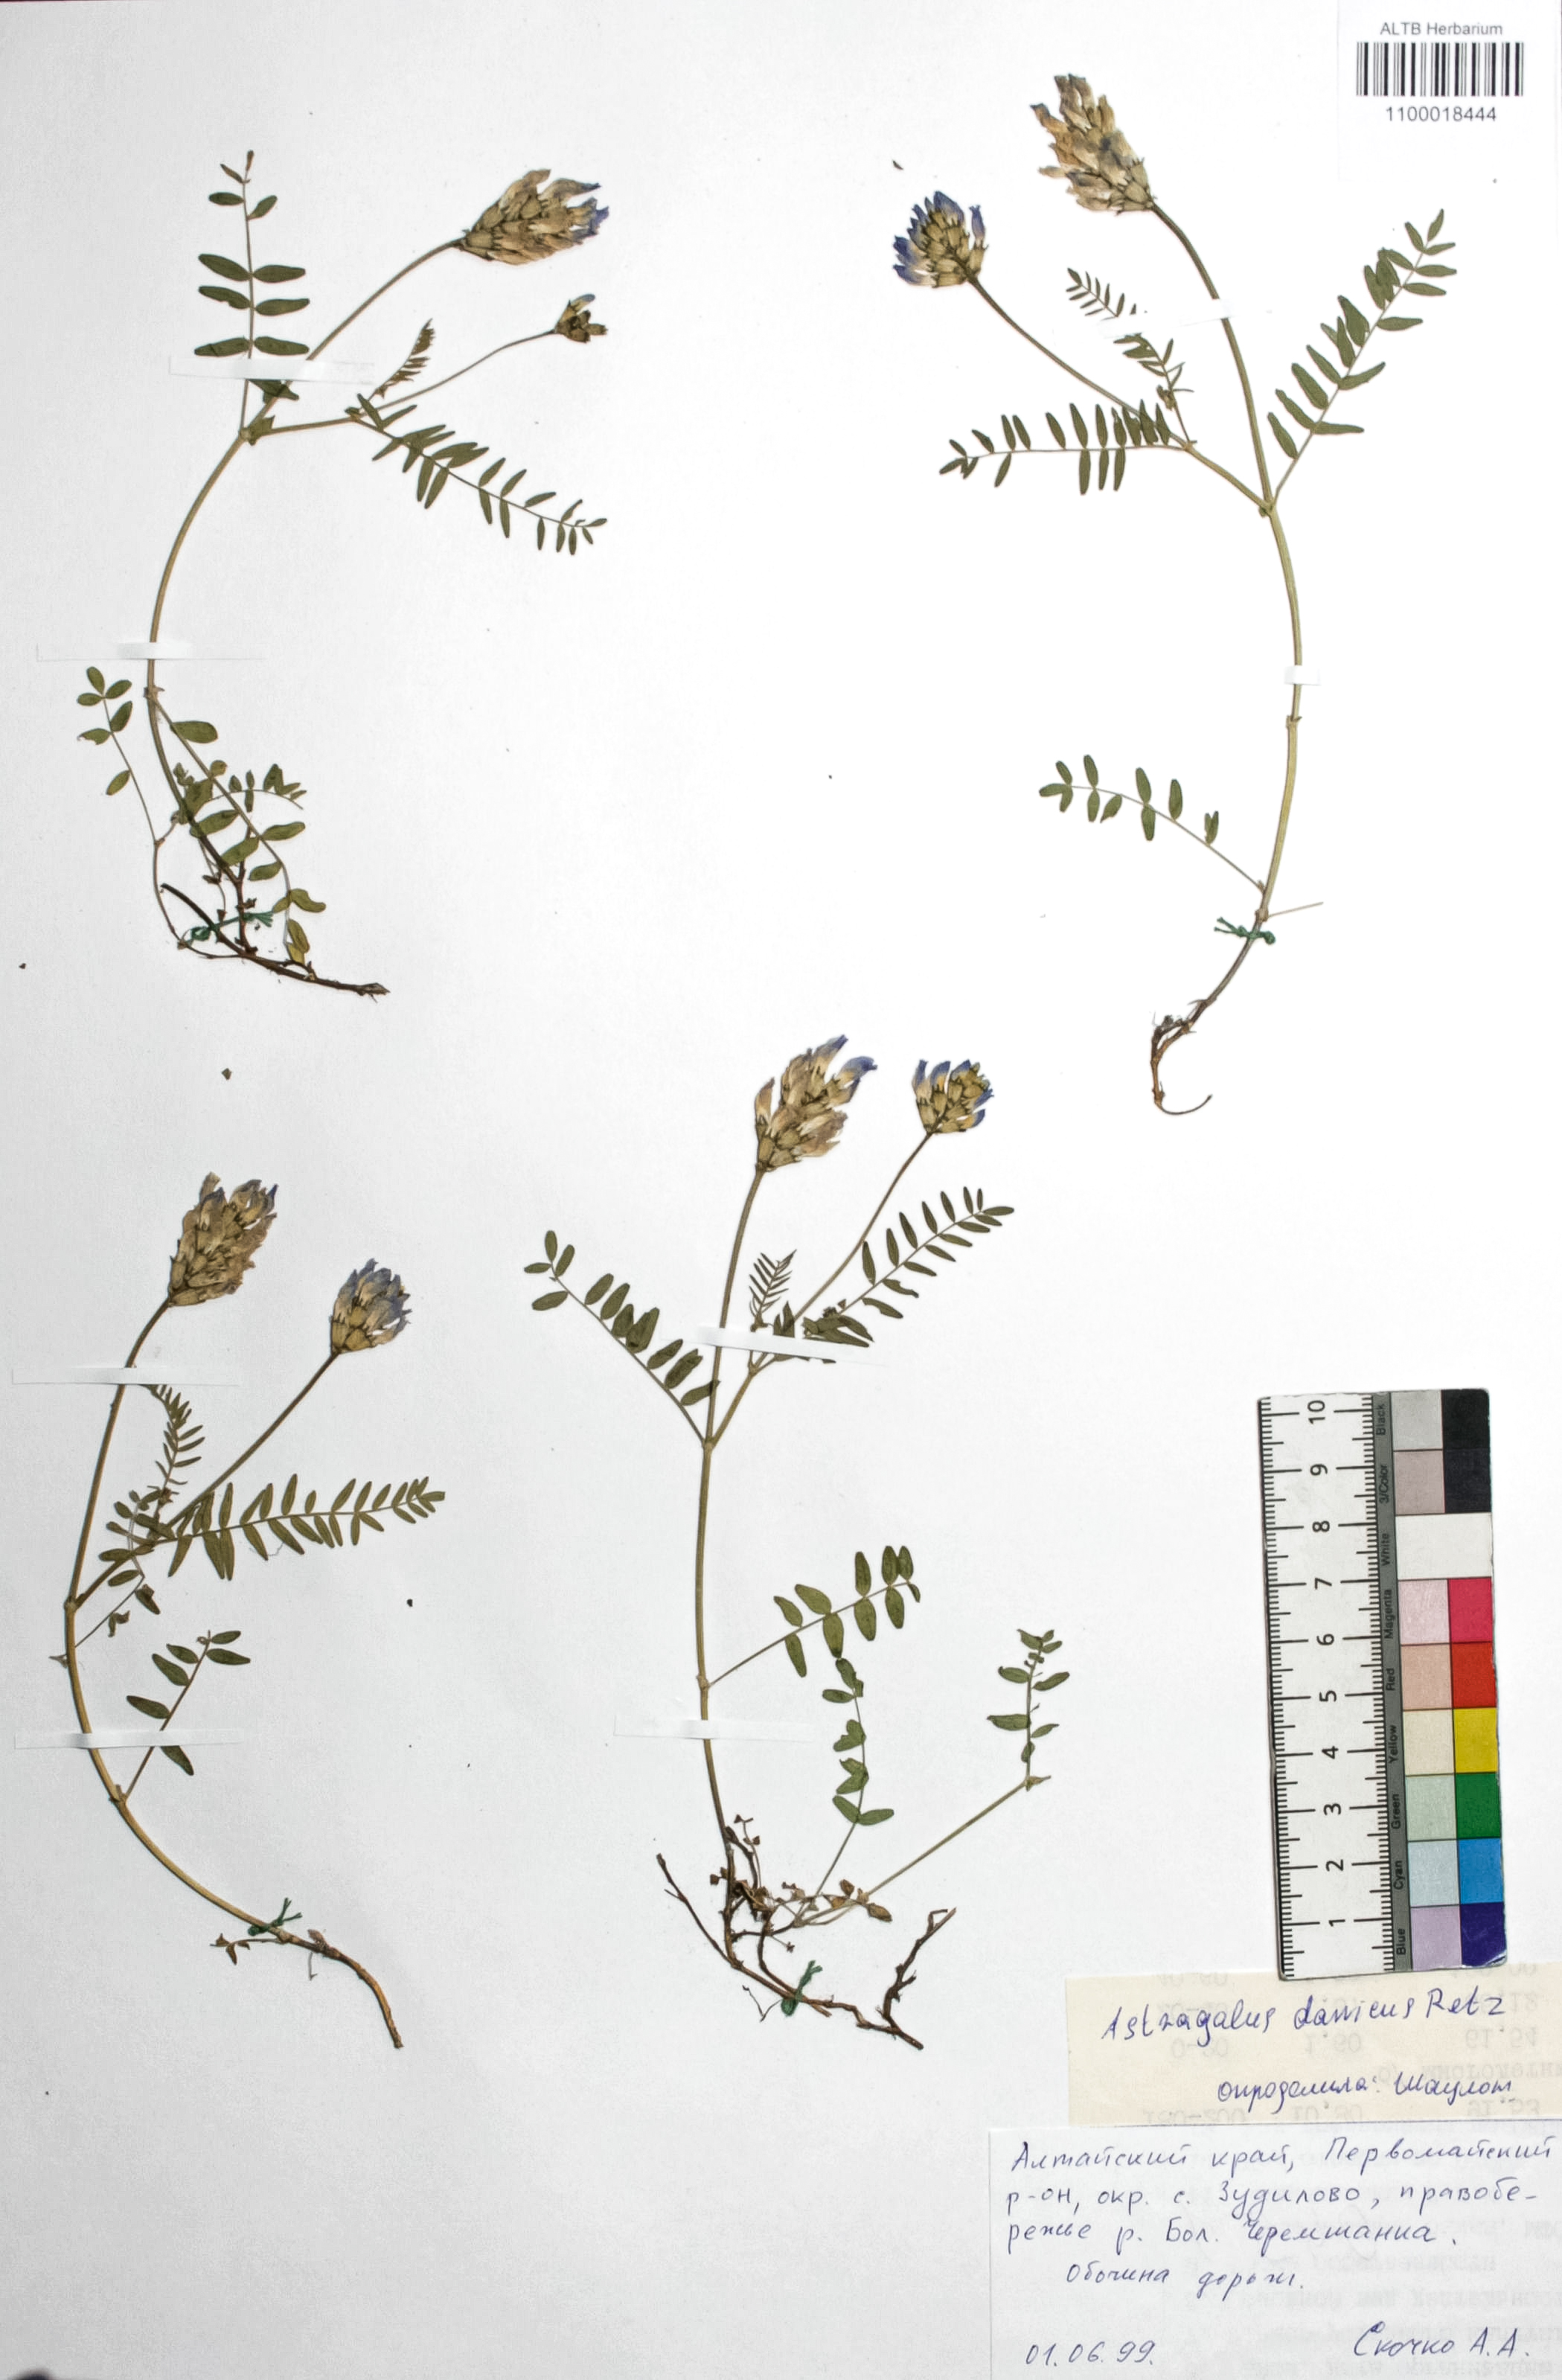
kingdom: Plantae
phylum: Tracheophyta
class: Magnoliopsida
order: Fabales
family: Fabaceae
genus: Astragalus
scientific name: Astragalus danicus
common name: Purple milk-vetch
